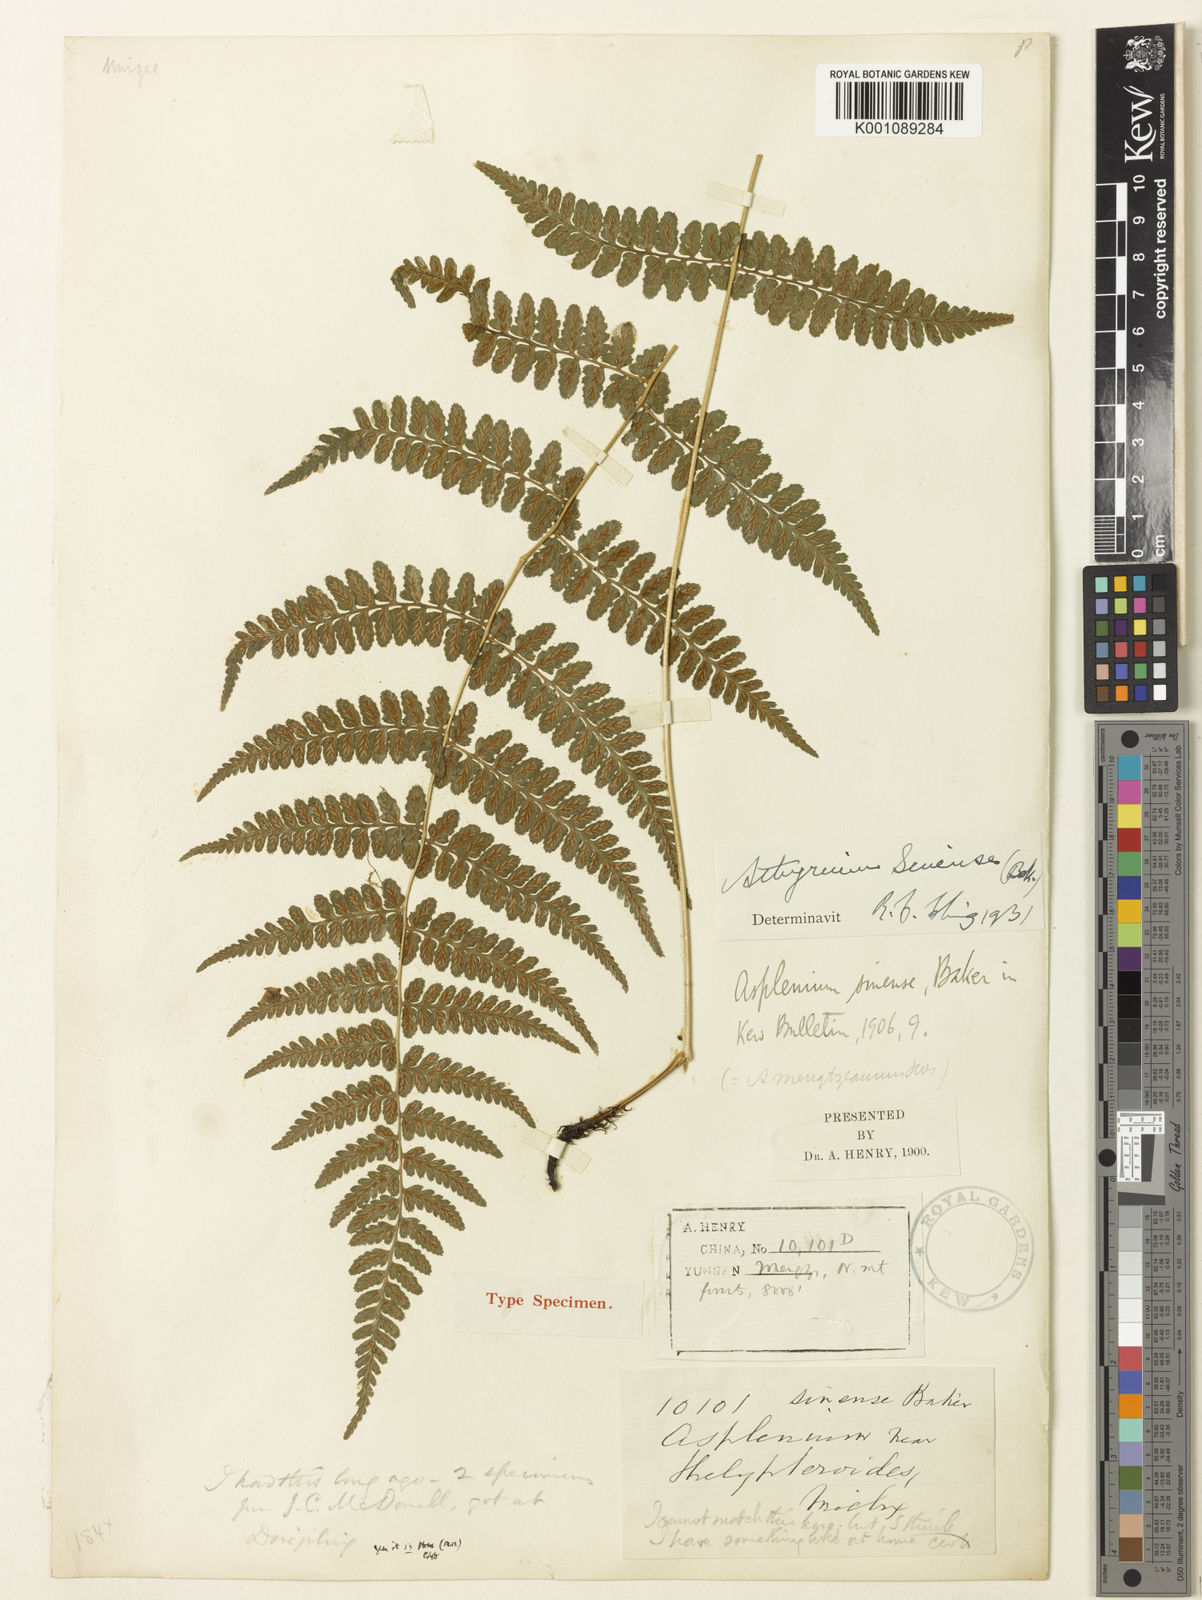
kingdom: Plantae
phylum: Tracheophyta
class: Polypodiopsida
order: Polypodiales
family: Athyriaceae
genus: Athyrium
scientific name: Athyrium roseum
